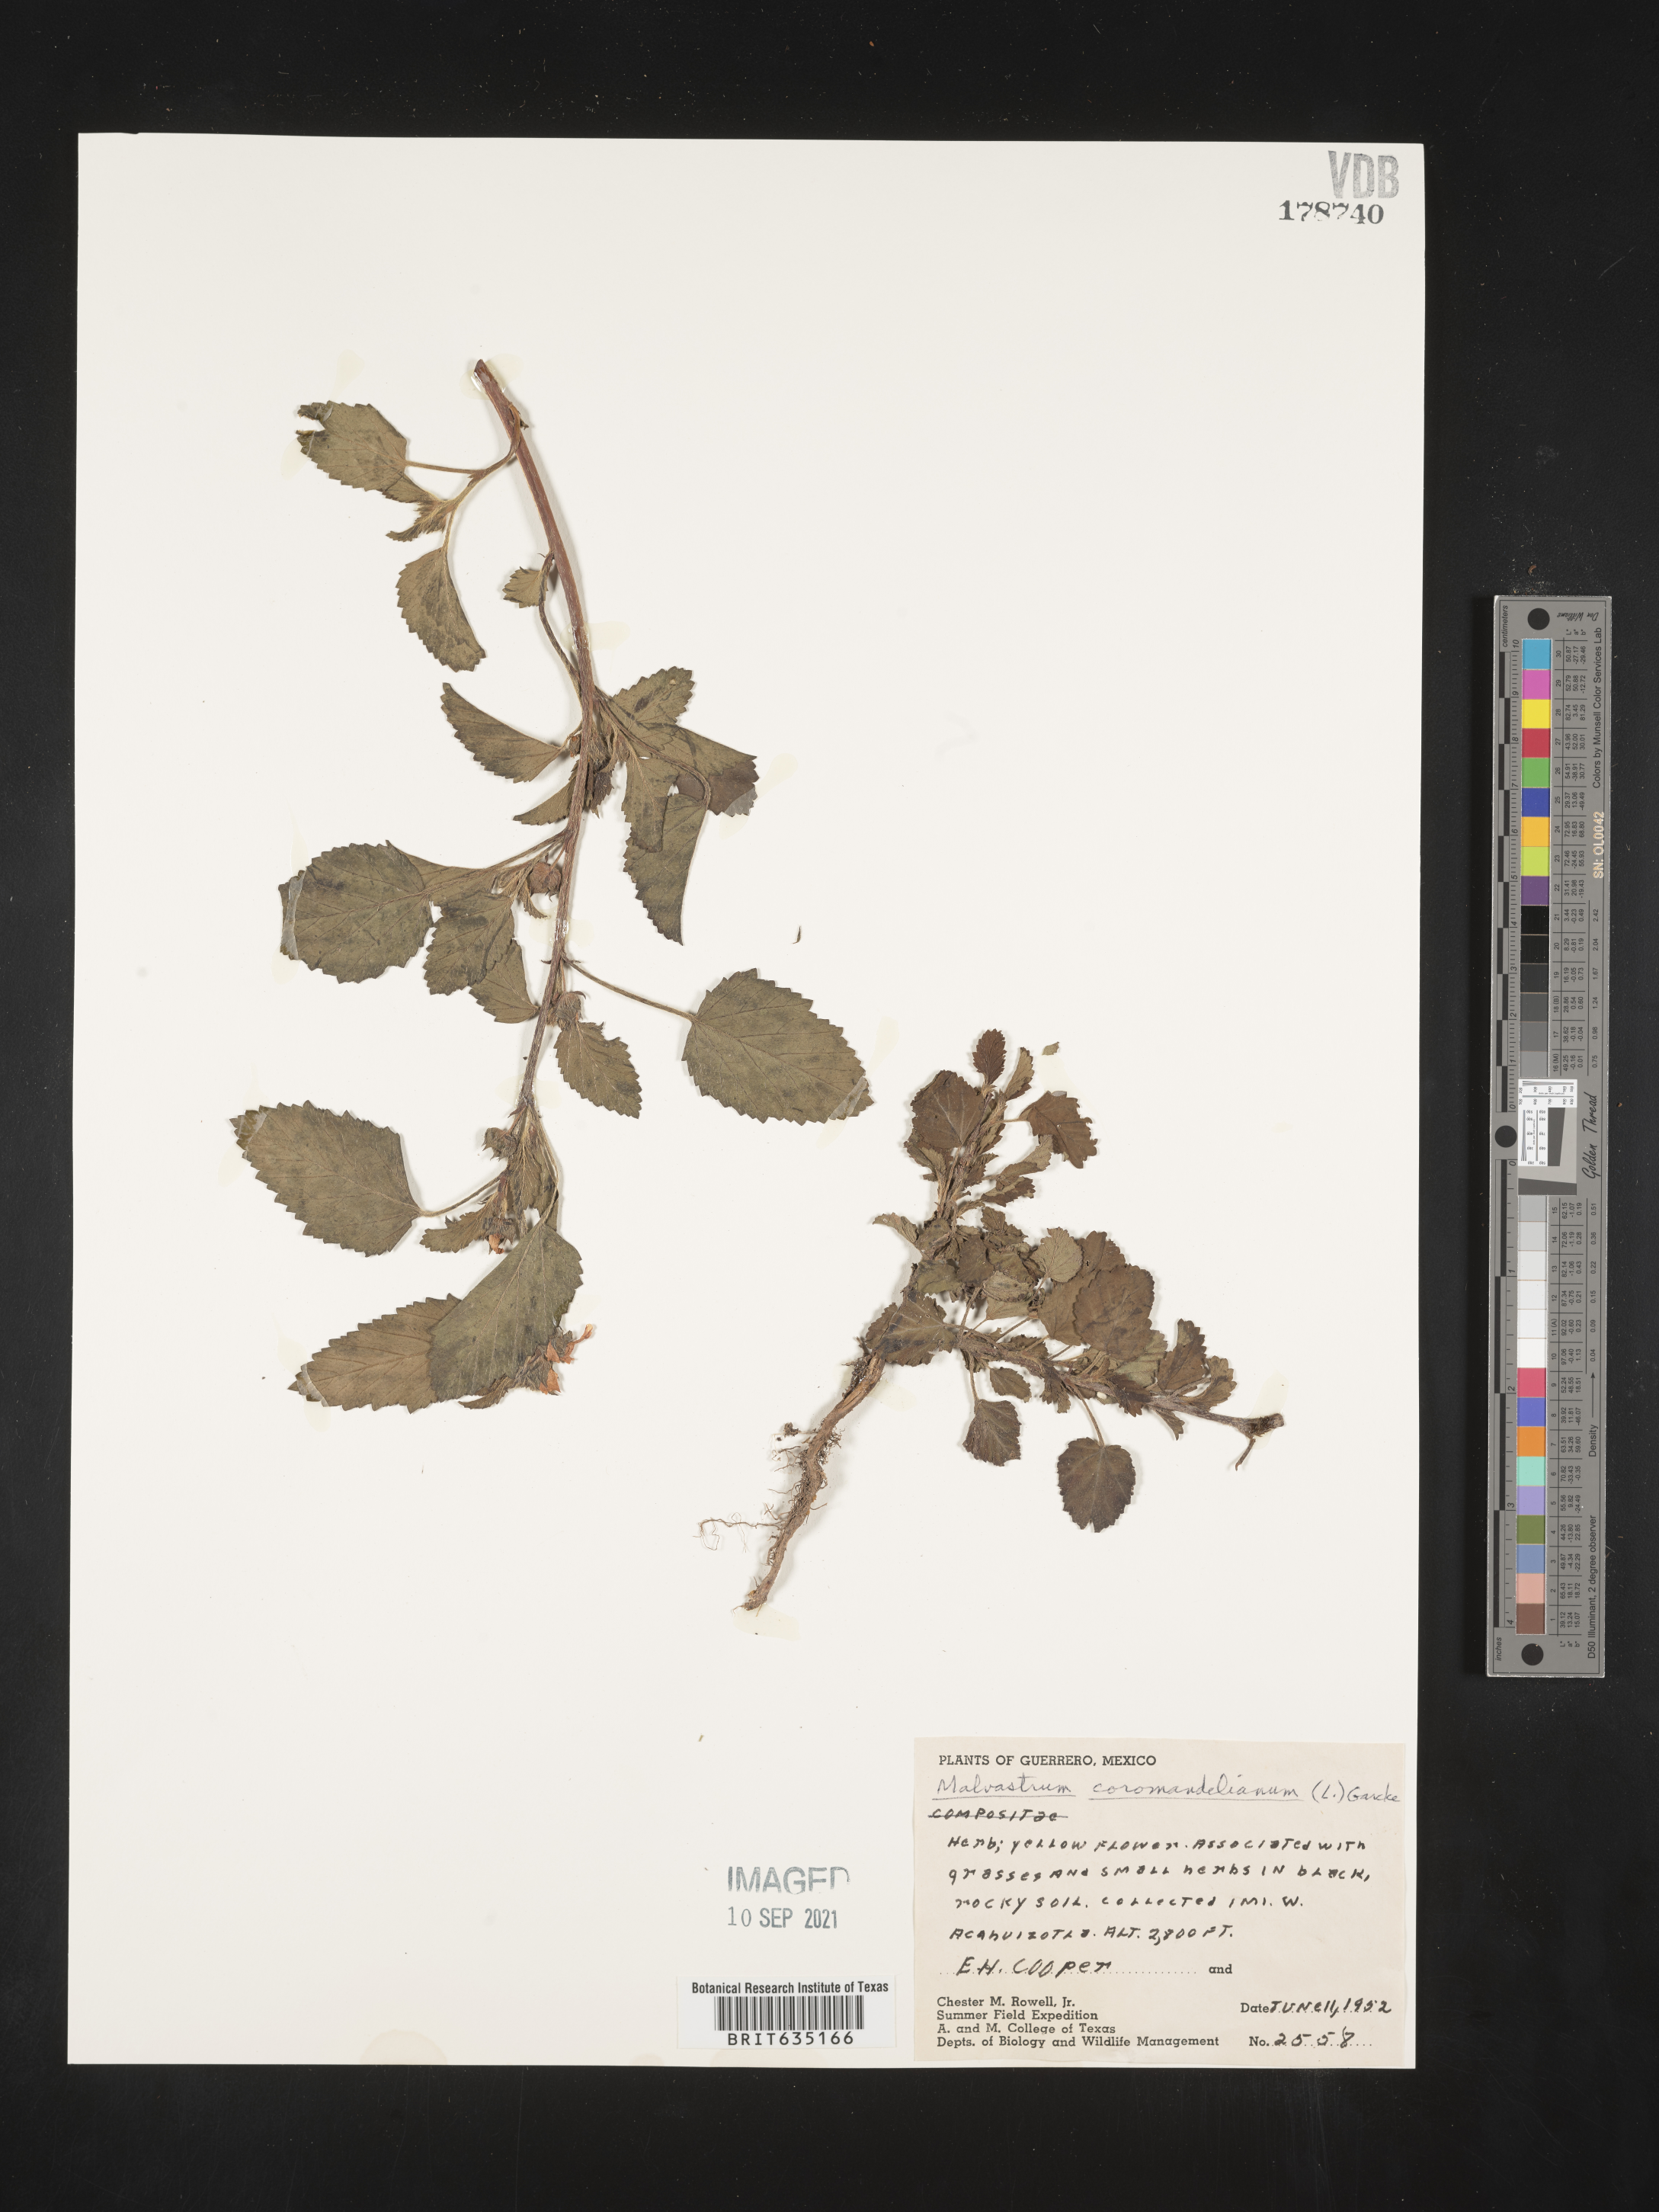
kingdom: Plantae
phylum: Tracheophyta
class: Magnoliopsida
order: Malvales
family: Malvaceae
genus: Malvastrum
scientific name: Malvastrum
